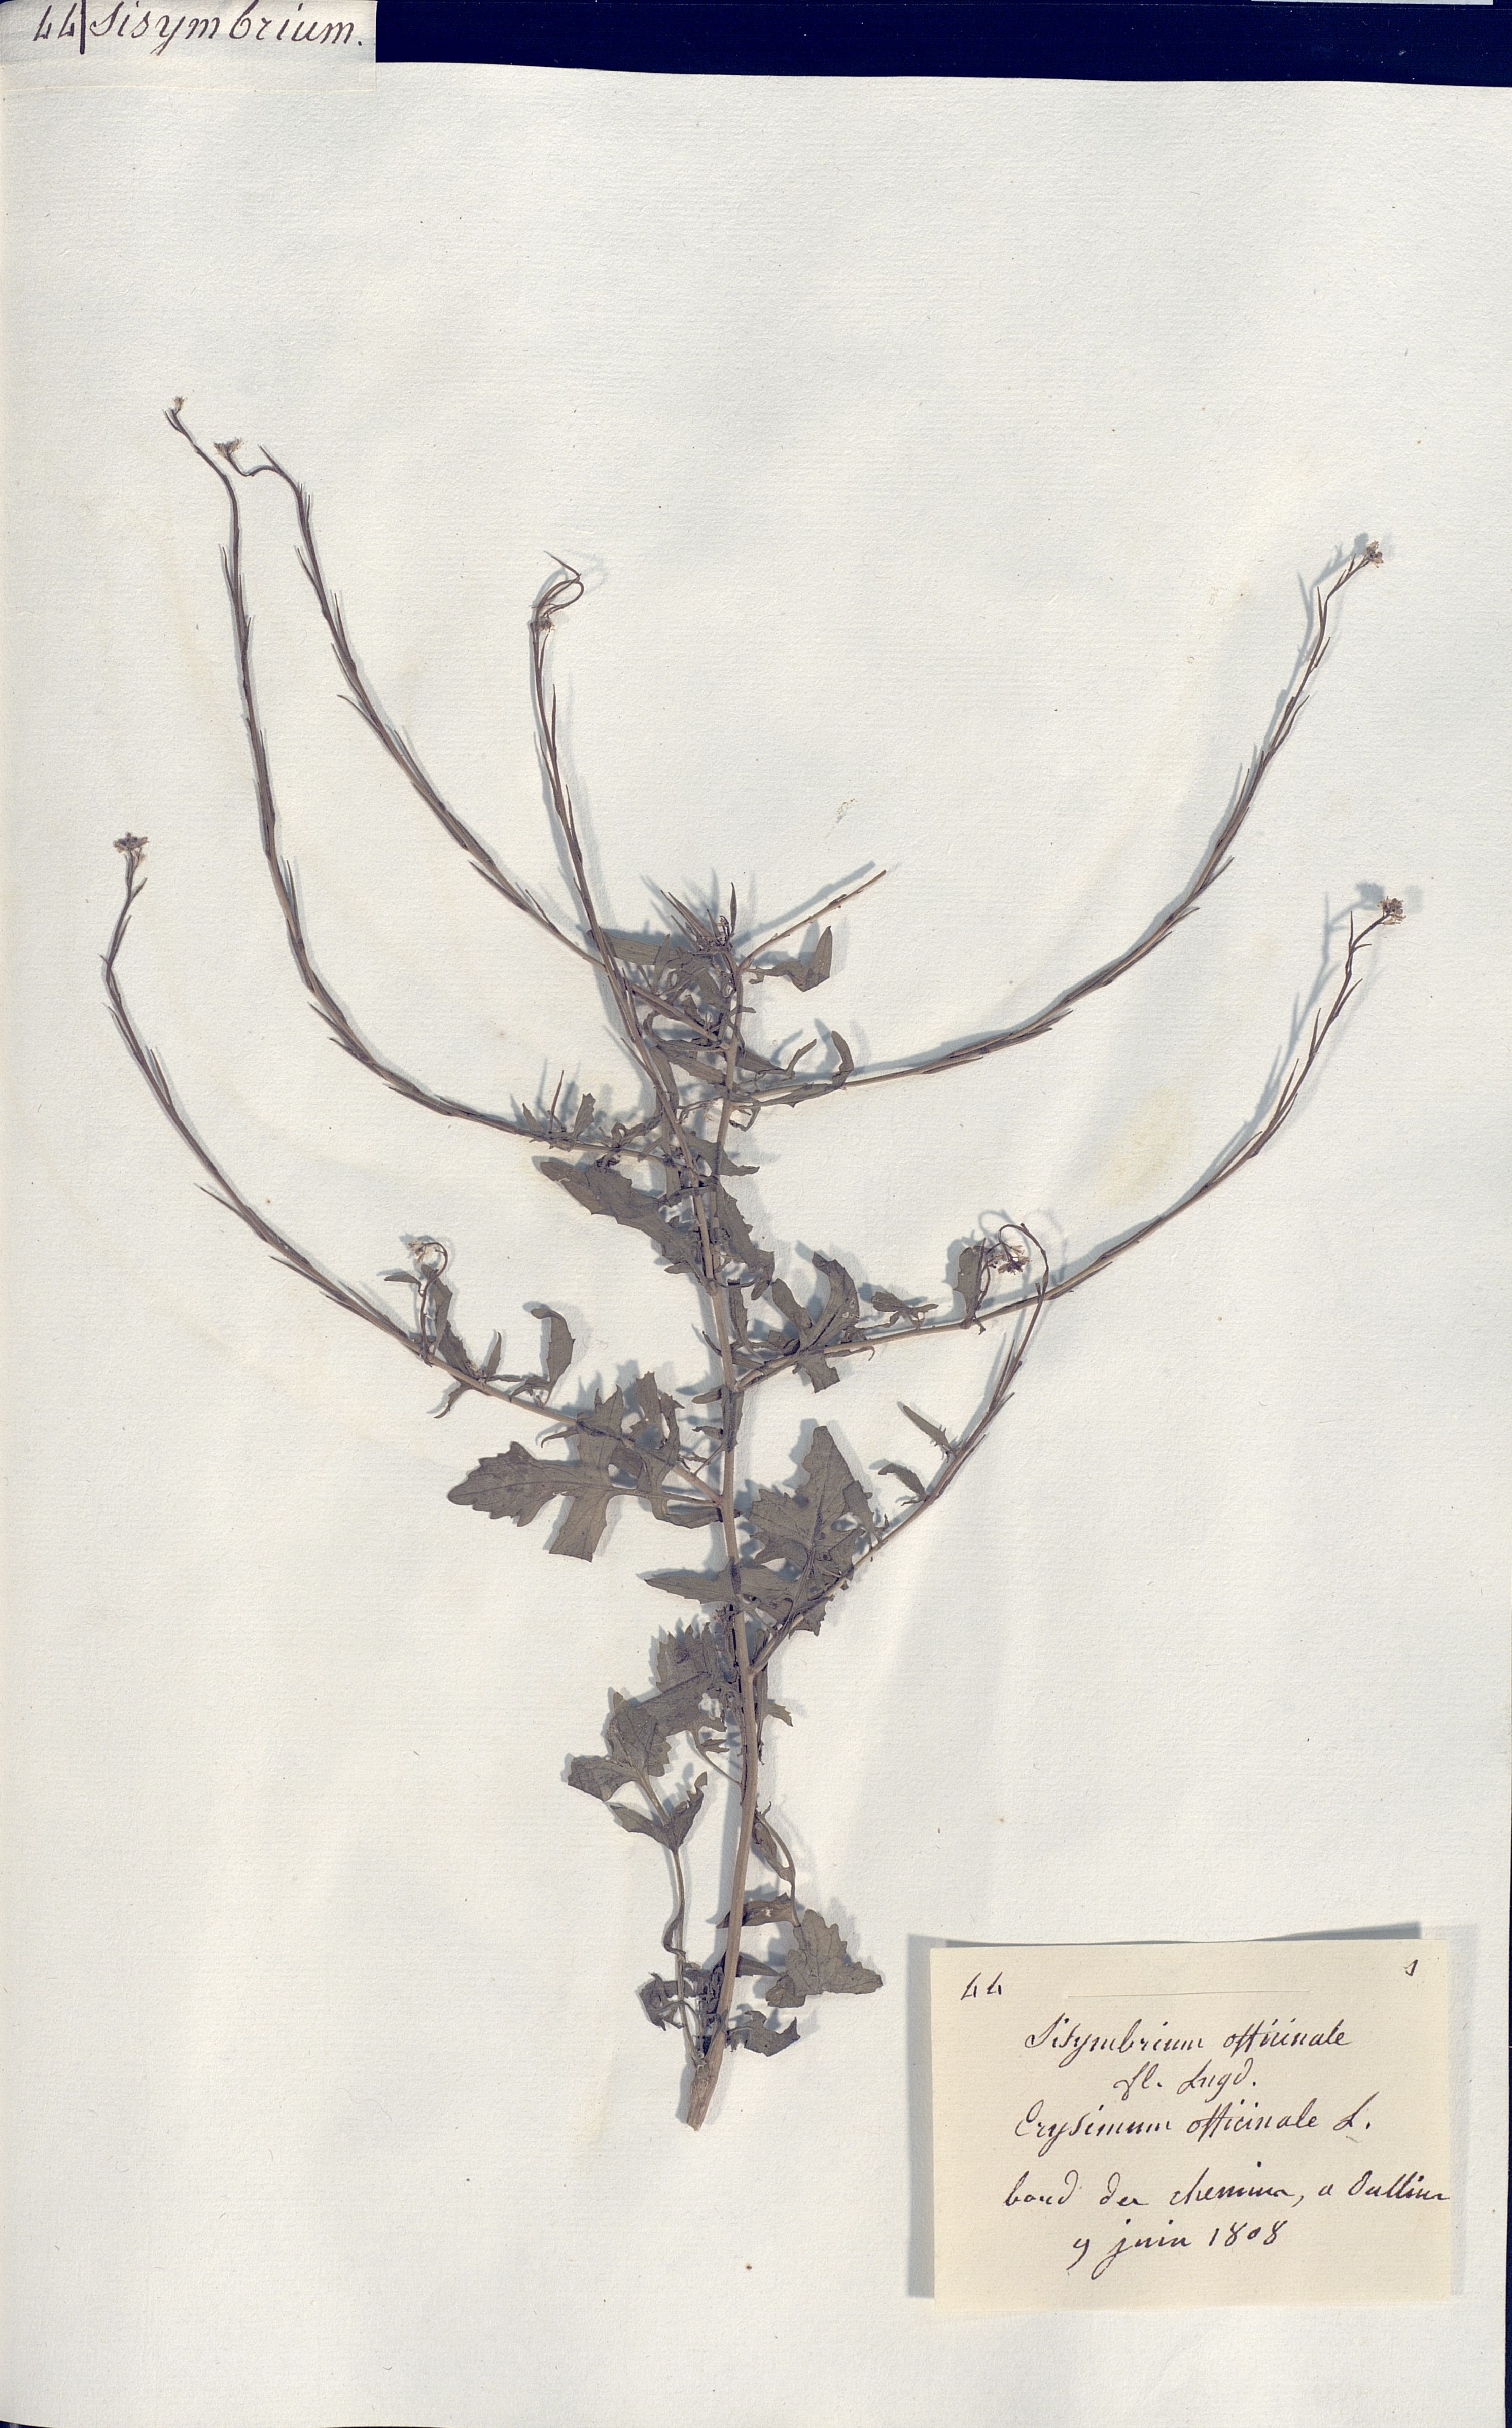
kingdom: Plantae
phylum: Tracheophyta
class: Magnoliopsida
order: Brassicales
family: Brassicaceae
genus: Sisymbrium
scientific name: Sisymbrium officinale
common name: Hedge mustard
